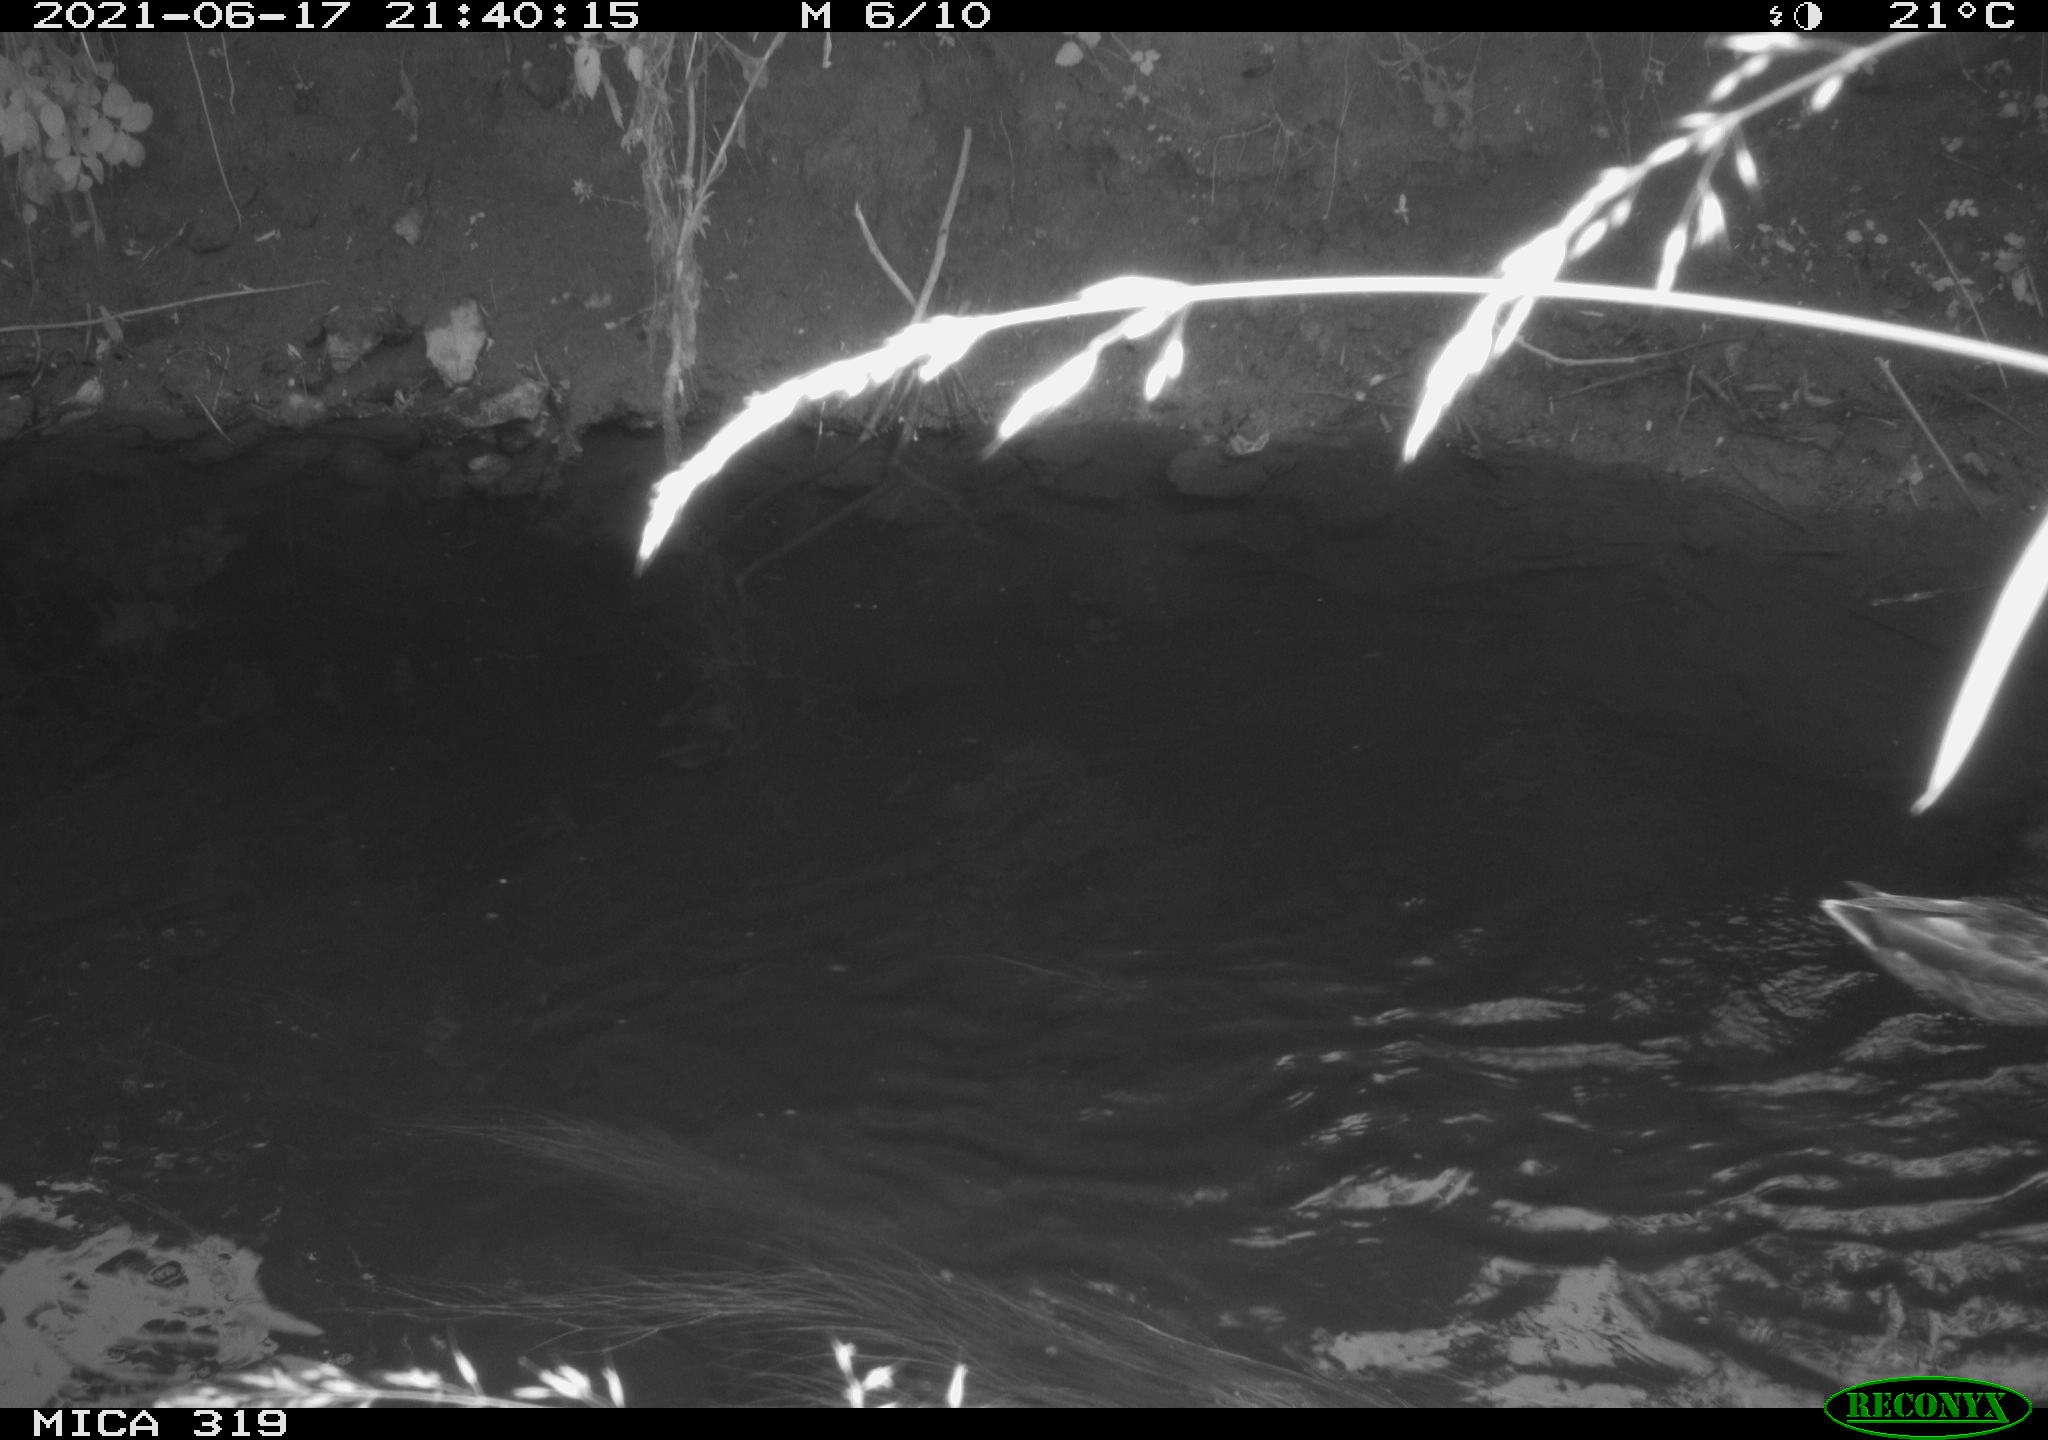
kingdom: Animalia
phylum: Chordata
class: Aves
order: Anseriformes
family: Anatidae
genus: Anas
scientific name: Anas platyrhynchos
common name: Mallard
